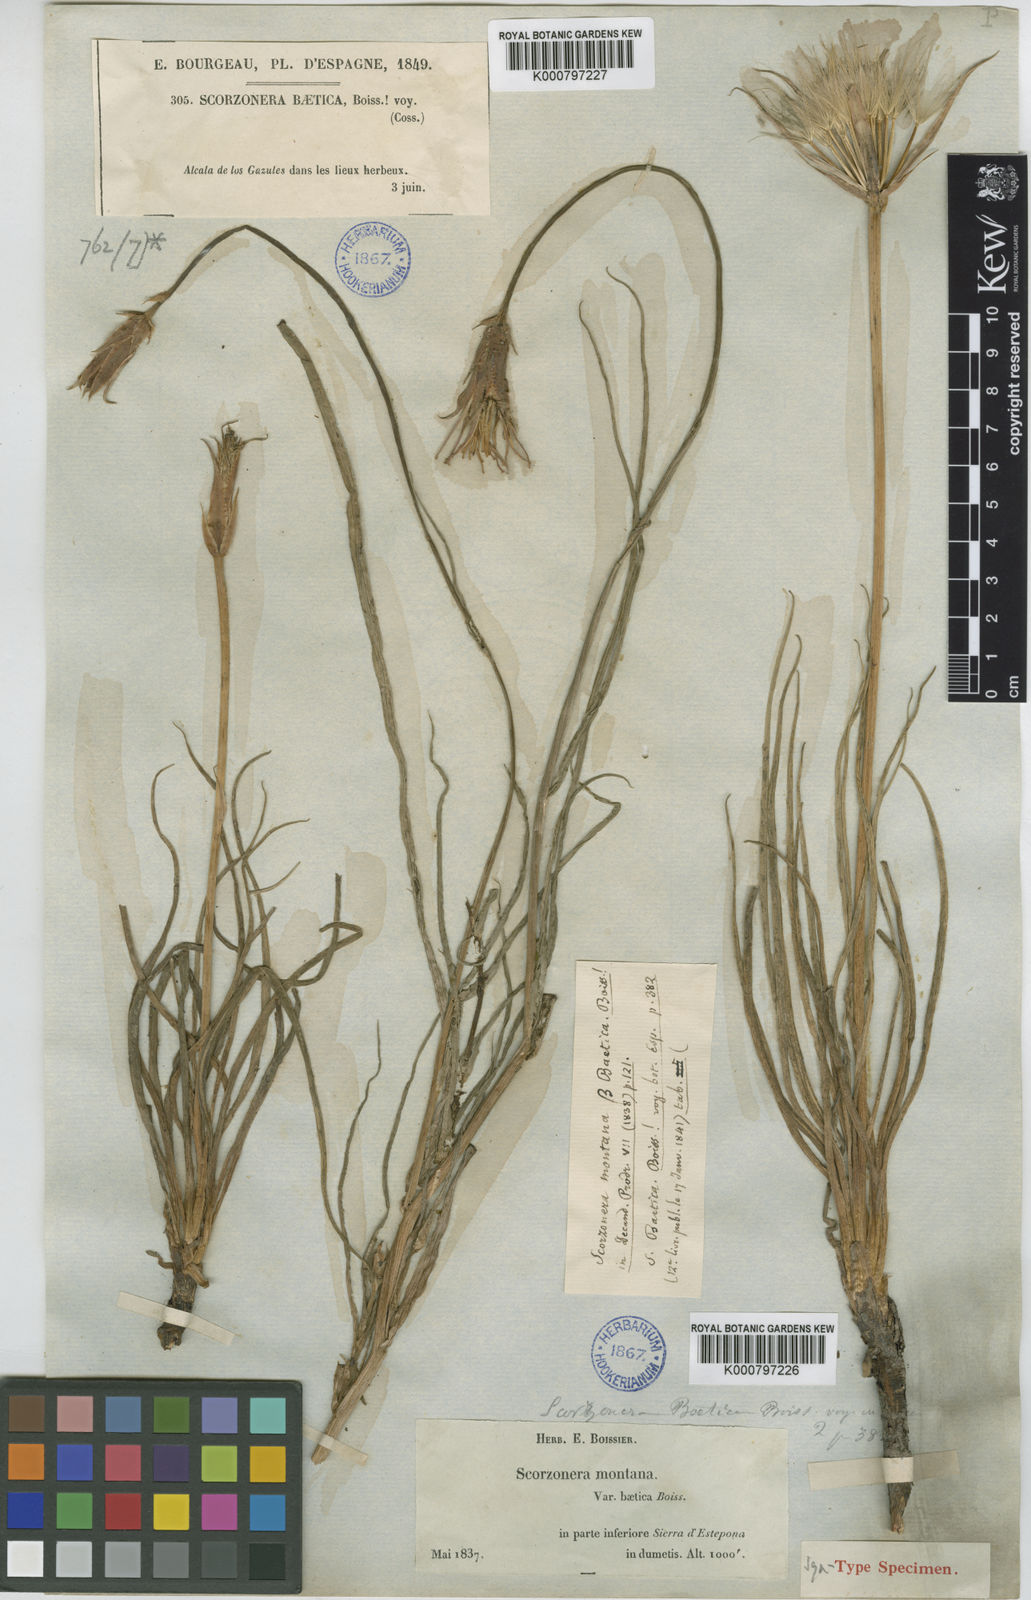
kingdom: Plantae
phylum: Tracheophyta
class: Magnoliopsida
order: Asterales
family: Asteraceae
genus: Scorzonera
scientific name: Scorzonera
